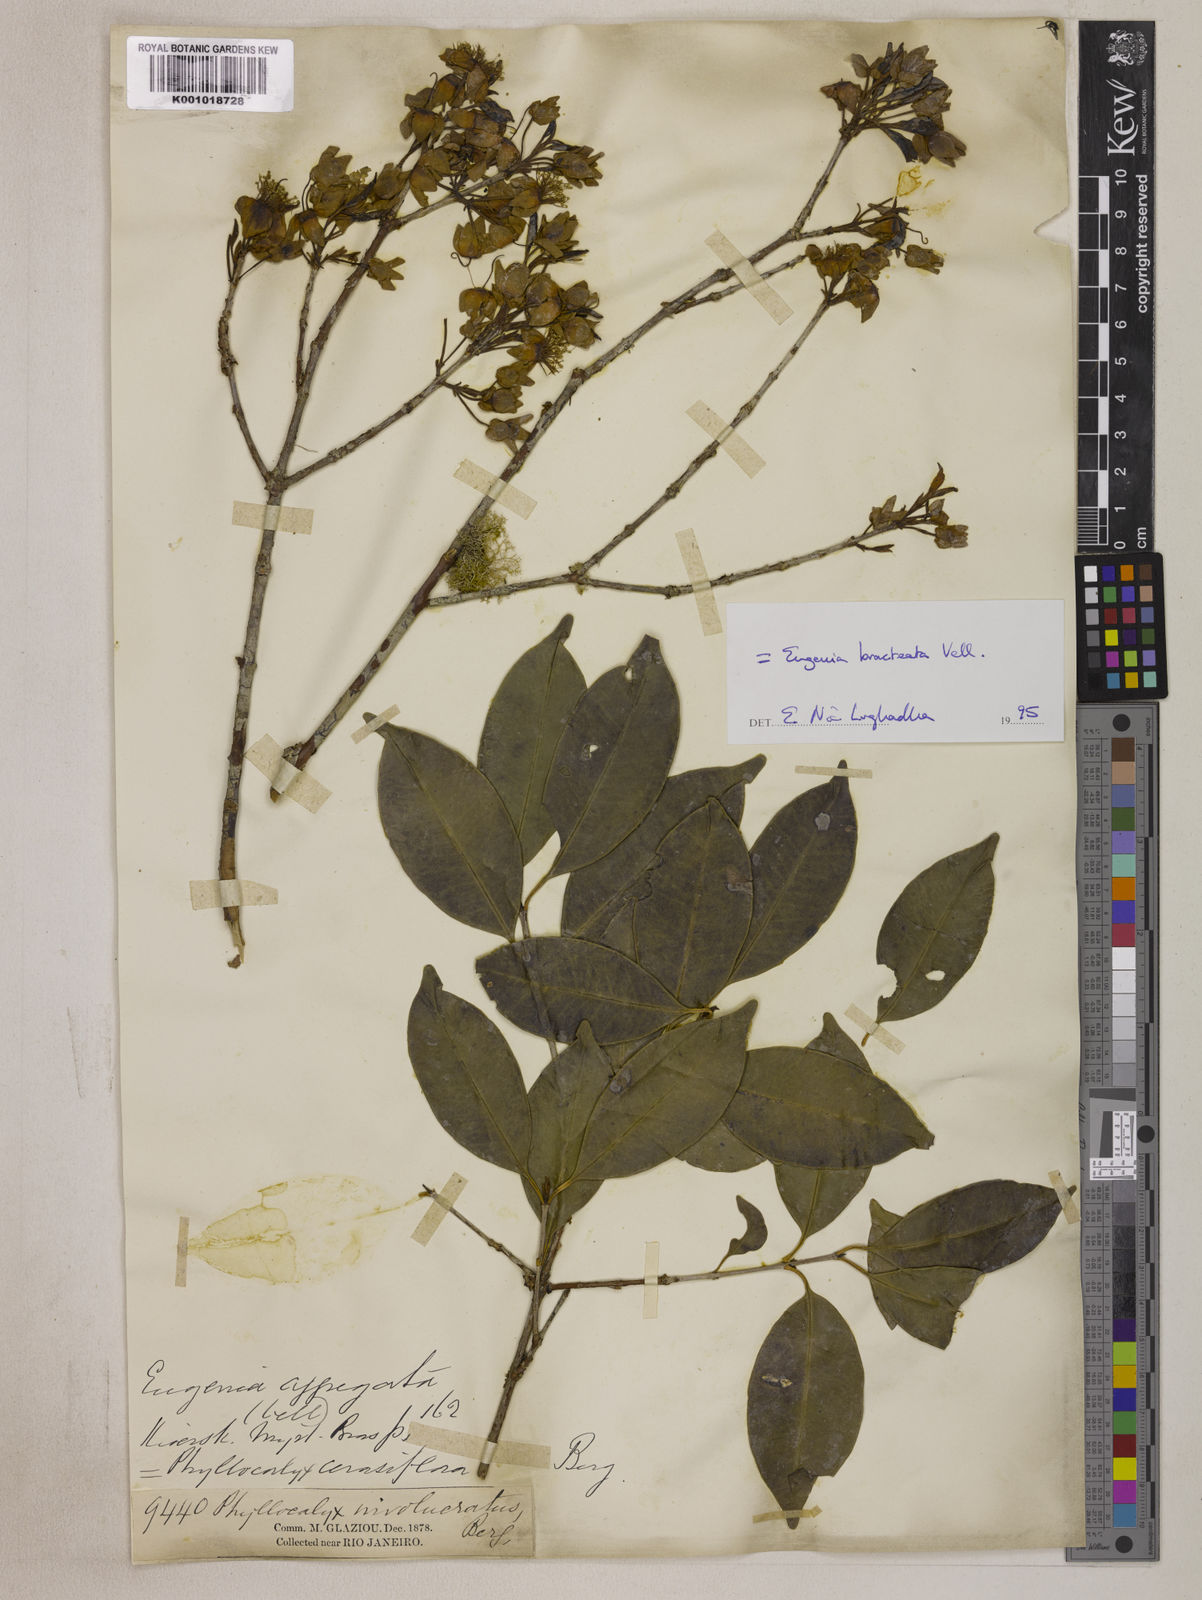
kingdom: Plantae
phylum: Tracheophyta
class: Magnoliopsida
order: Myrtales
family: Myrtaceae
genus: Eugenia
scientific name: Eugenia involucrata
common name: Cherry-of-the-rio grande
